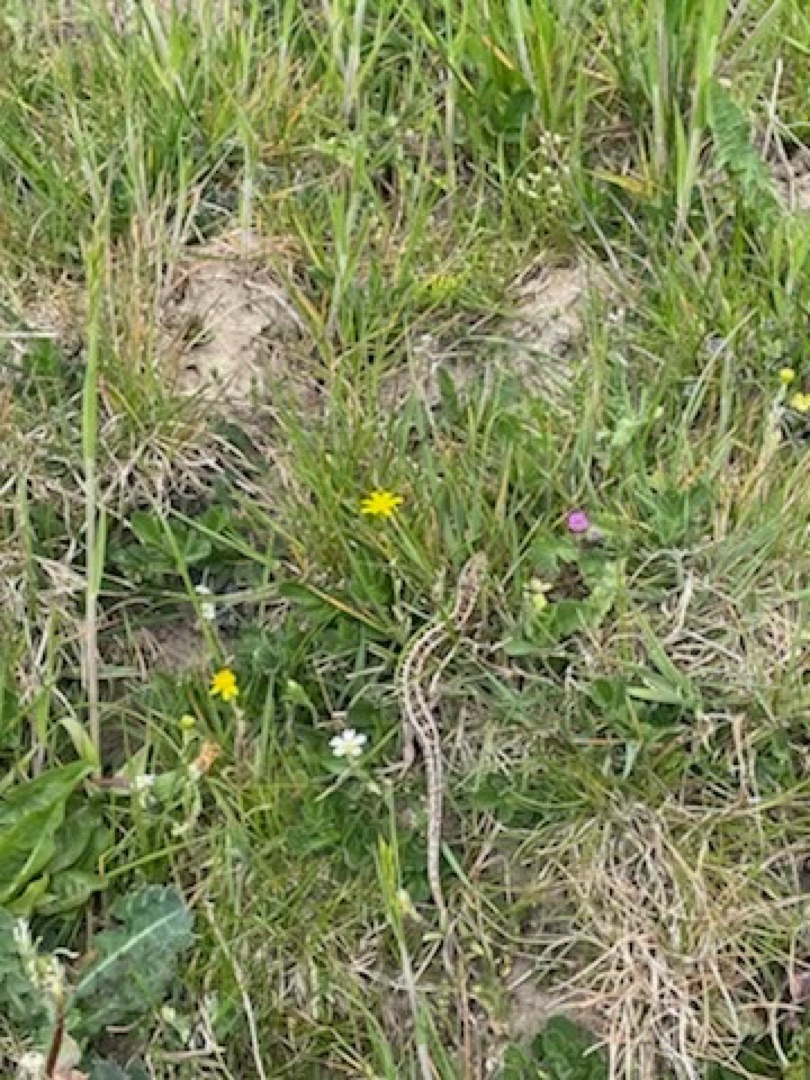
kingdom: Animalia
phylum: Chordata
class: Squamata
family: Lacertidae
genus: Lacerta
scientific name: Lacerta agilis
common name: Markfirben
